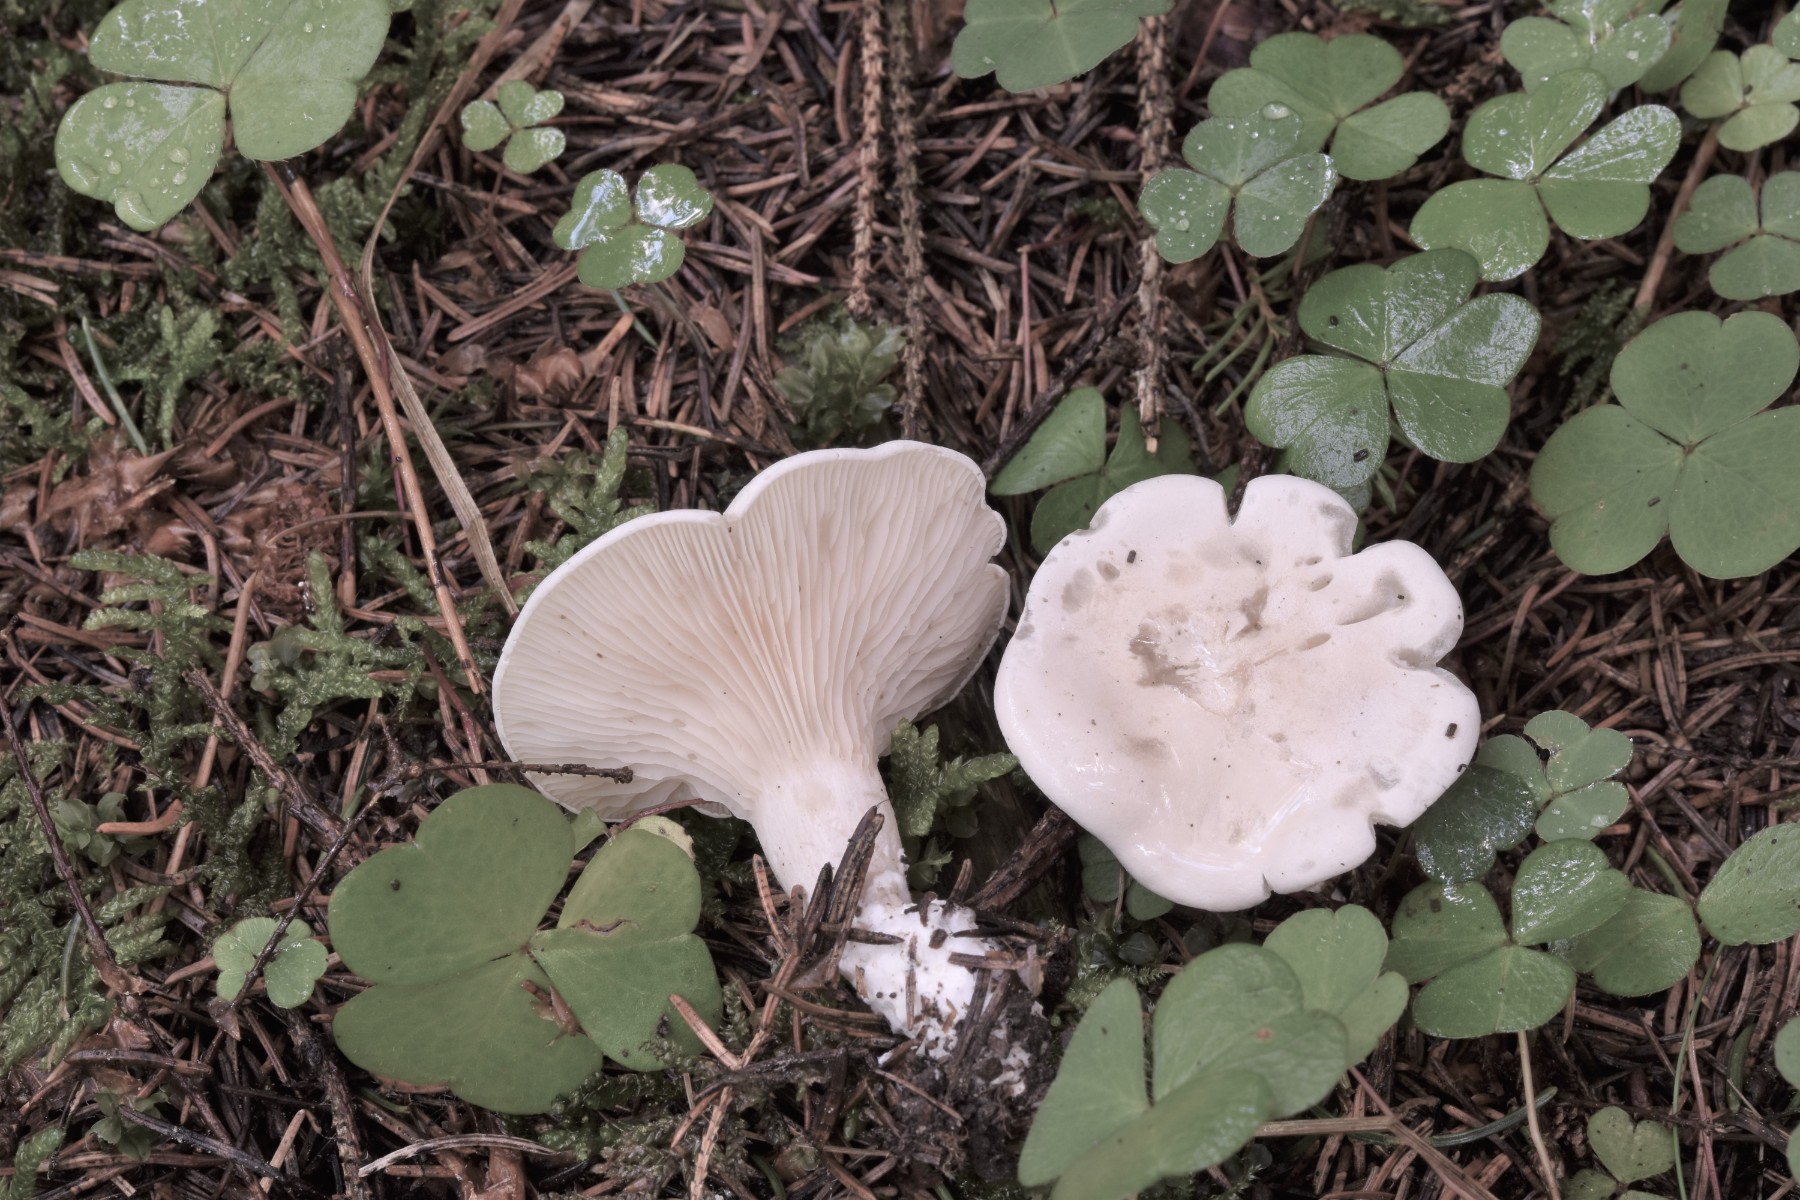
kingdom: Fungi
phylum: Basidiomycota
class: Agaricomycetes
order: Agaricales
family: Entolomataceae
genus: Clitopilus
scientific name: Clitopilus prunulus
